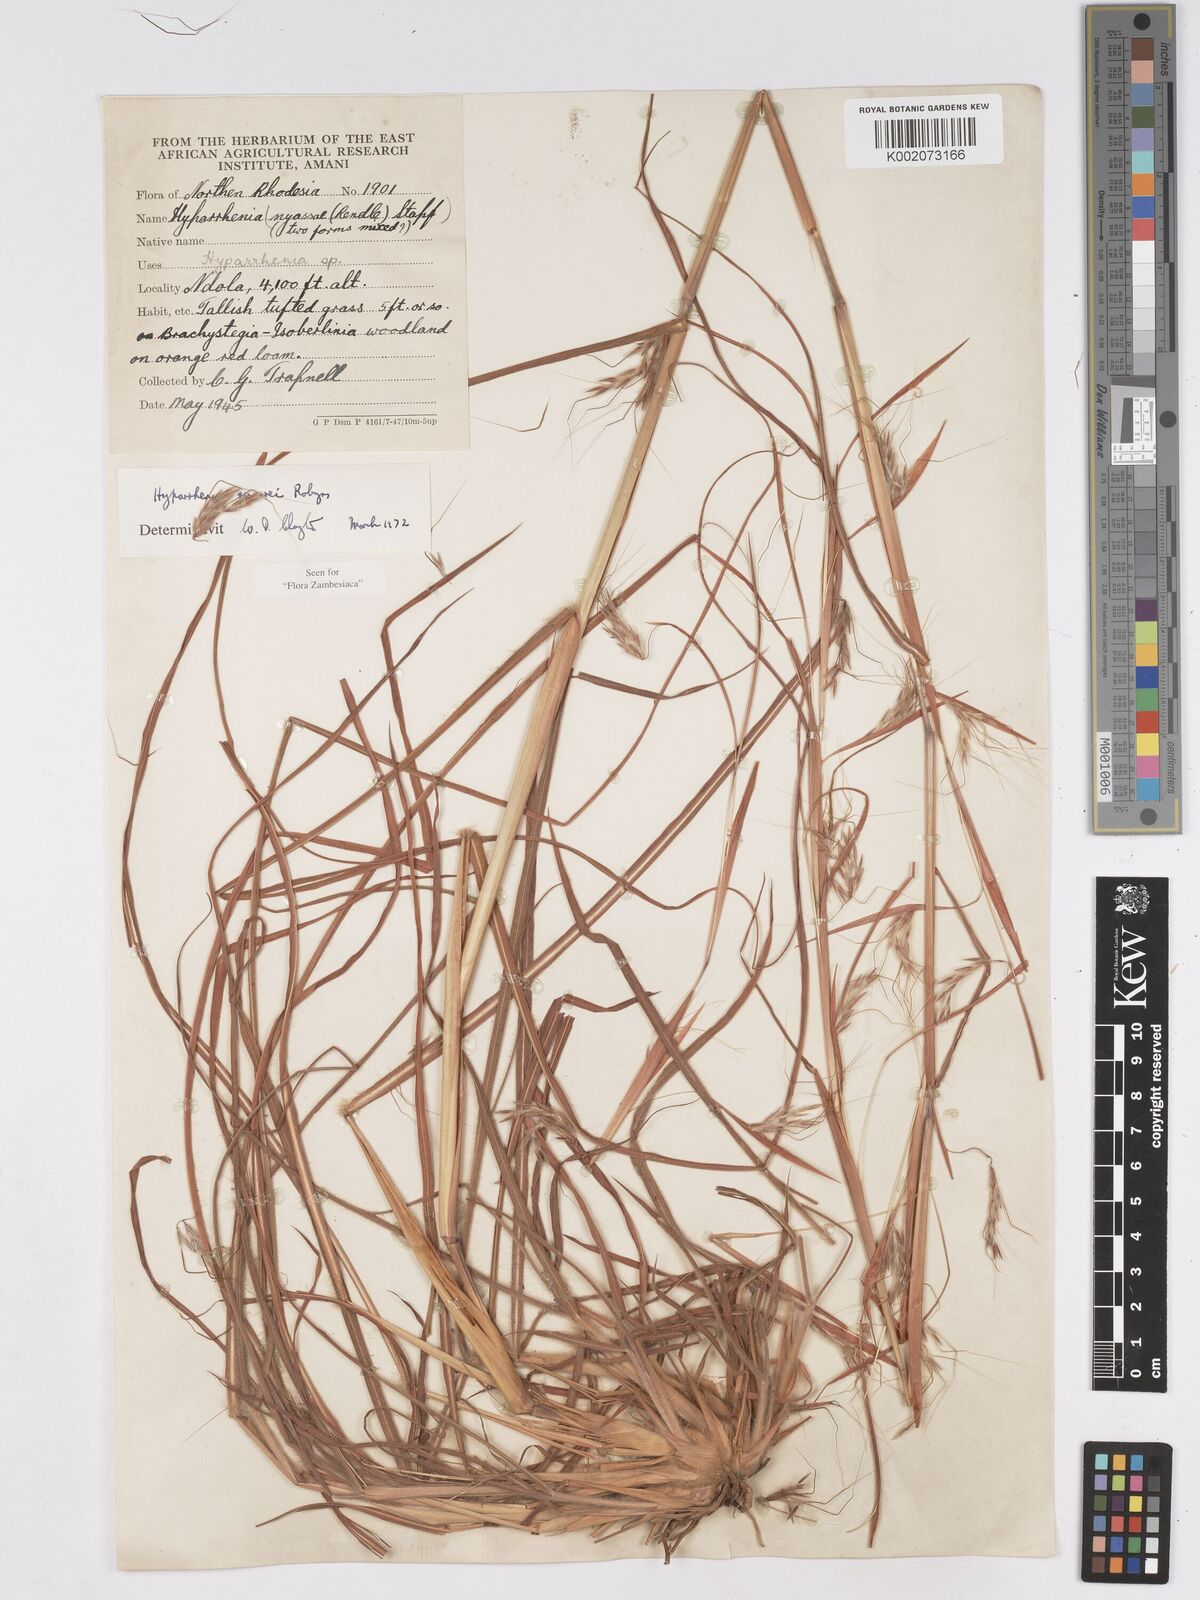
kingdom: Plantae
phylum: Tracheophyta
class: Liliopsida
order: Poales
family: Poaceae
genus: Hyparrhenia
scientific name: Hyparrhenia quarrei
